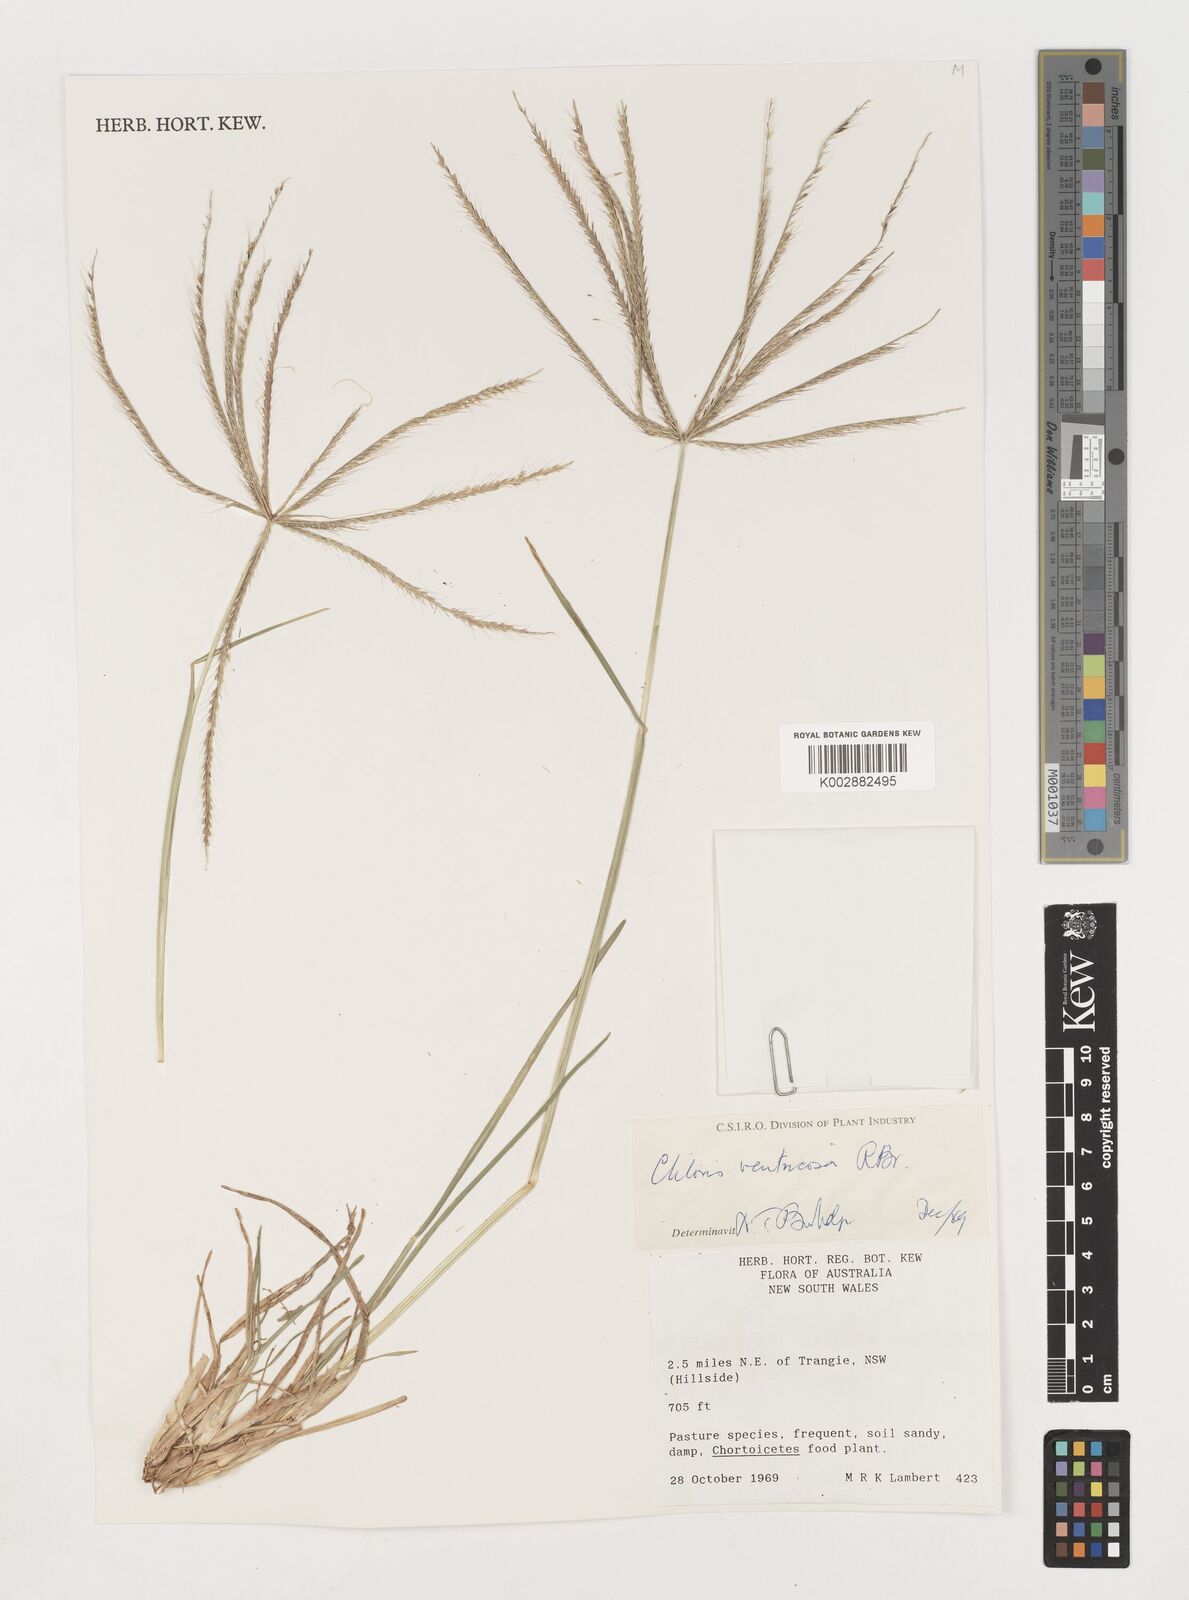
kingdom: Plantae
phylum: Tracheophyta
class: Liliopsida
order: Poales
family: Poaceae
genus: Chloris
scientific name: Chloris ventricosa
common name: Australian windmill grass
